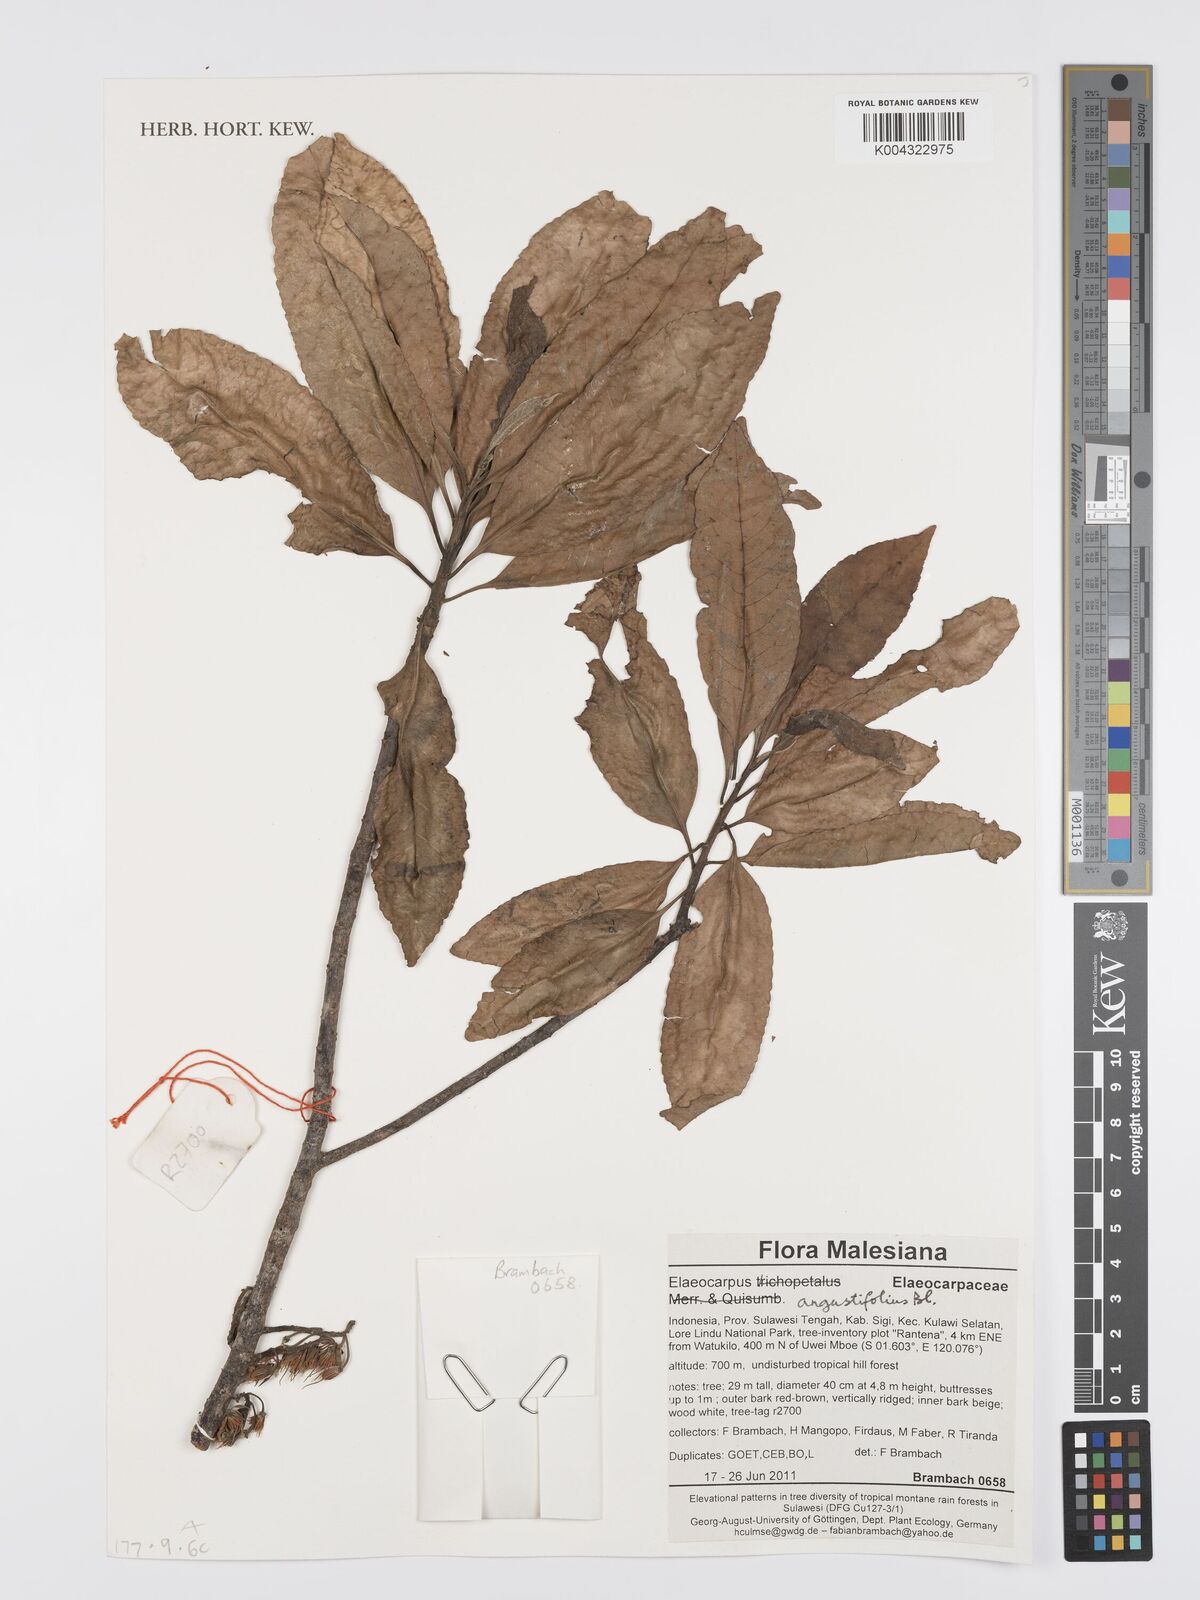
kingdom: Plantae
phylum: Tracheophyta
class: Magnoliopsida
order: Oxalidales
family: Elaeocarpaceae
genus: Elaeocarpus
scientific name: Elaeocarpus
